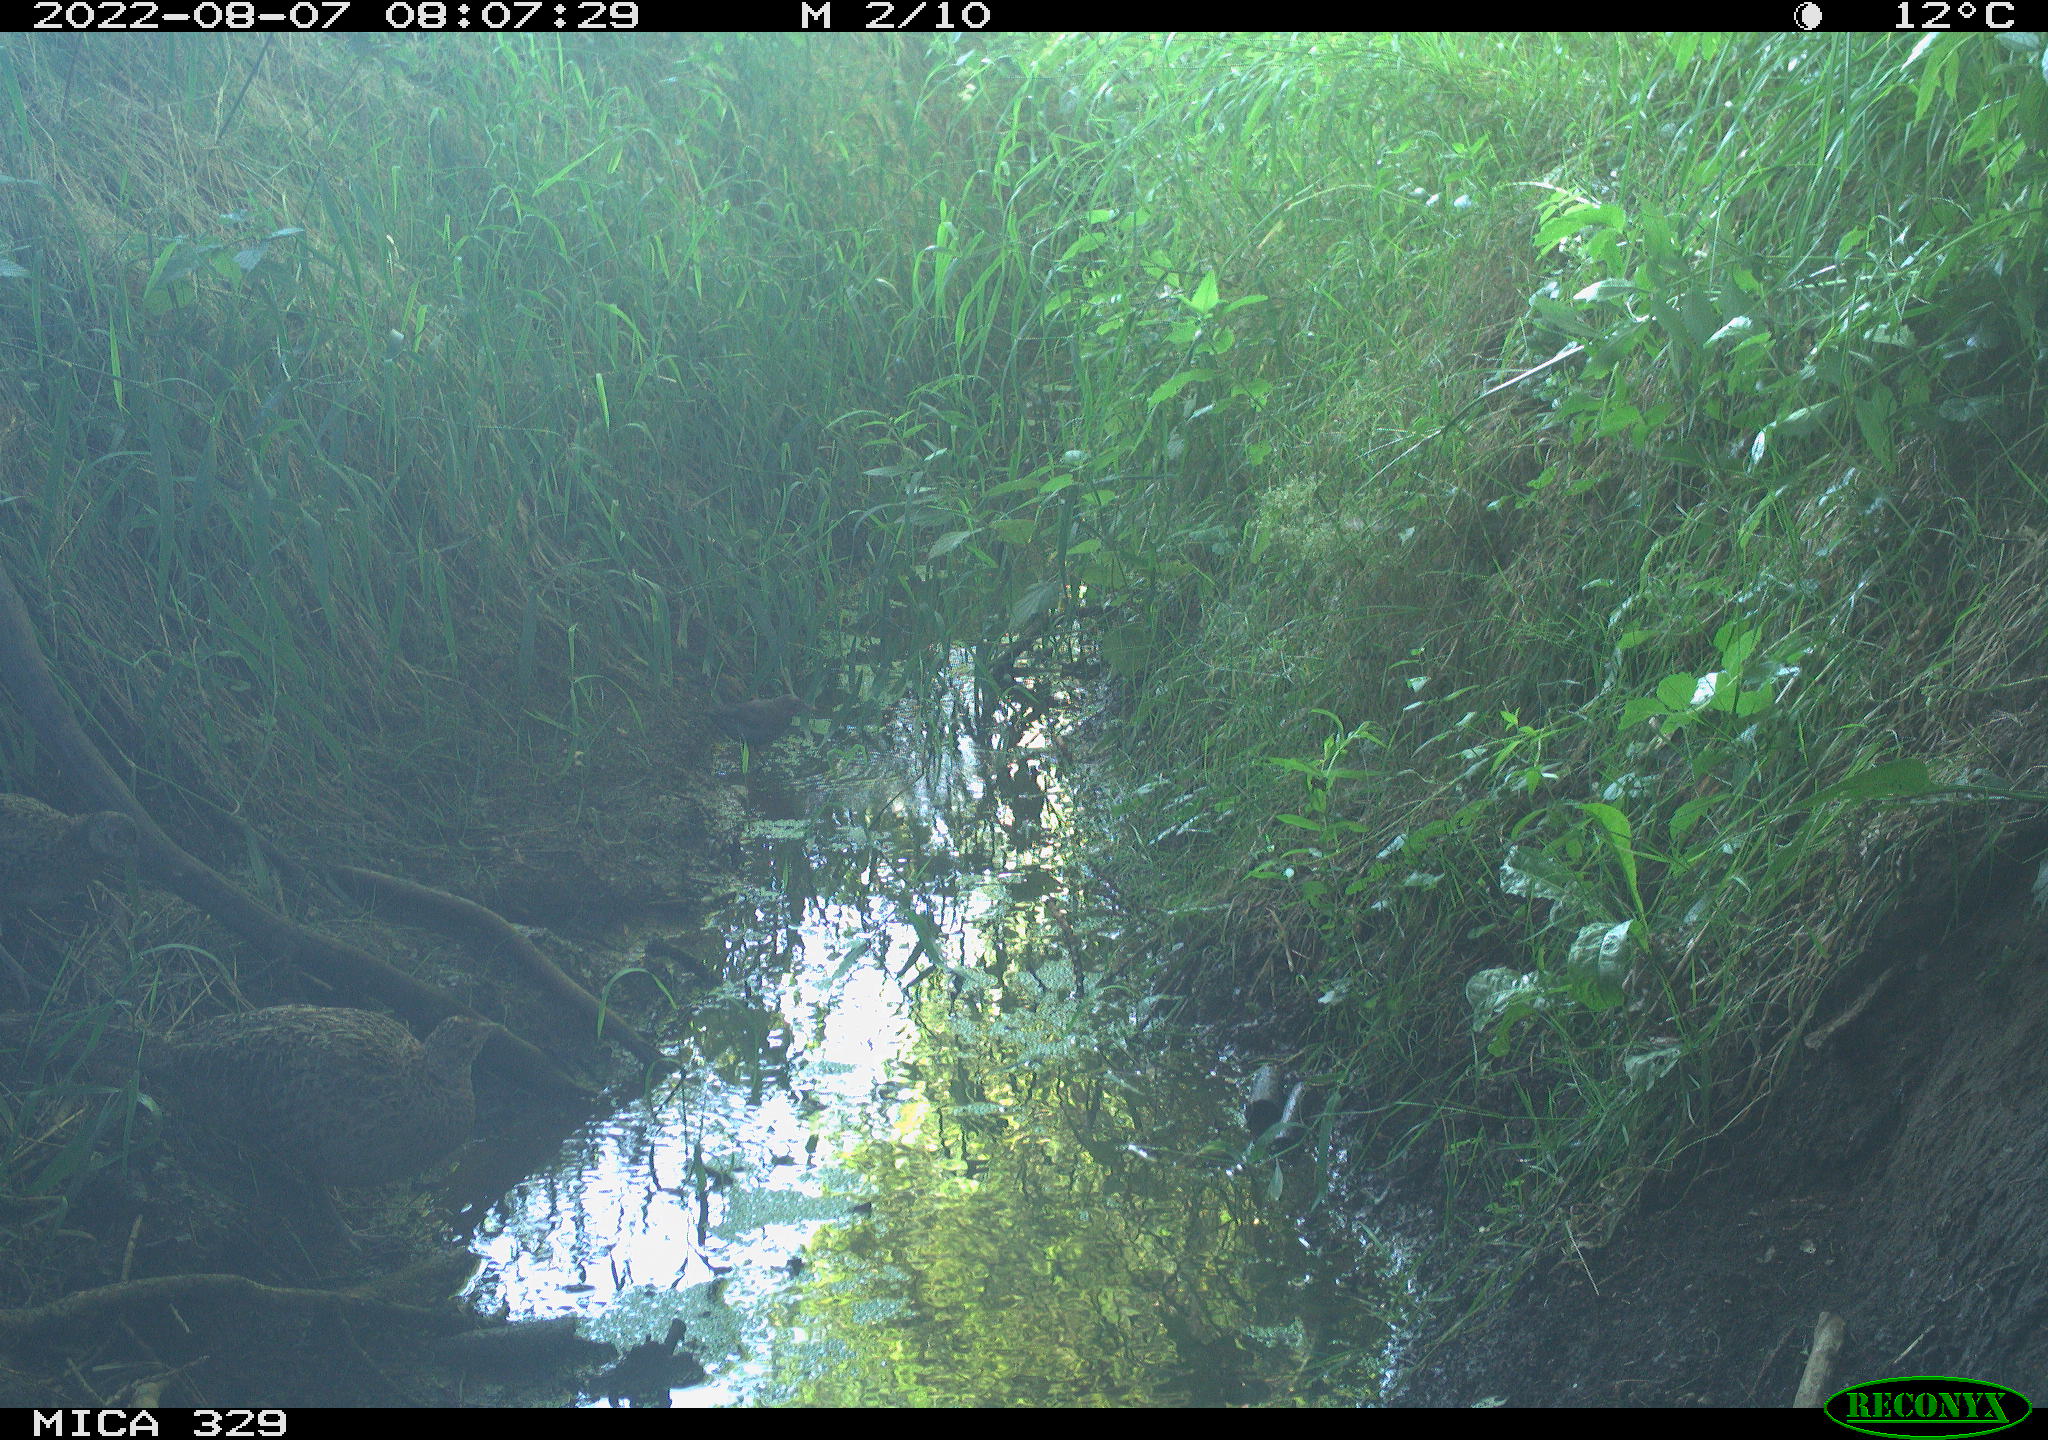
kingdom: Animalia
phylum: Chordata
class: Aves
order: Passeriformes
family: Turdidae
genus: Turdus
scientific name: Turdus merula
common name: Common blackbird
